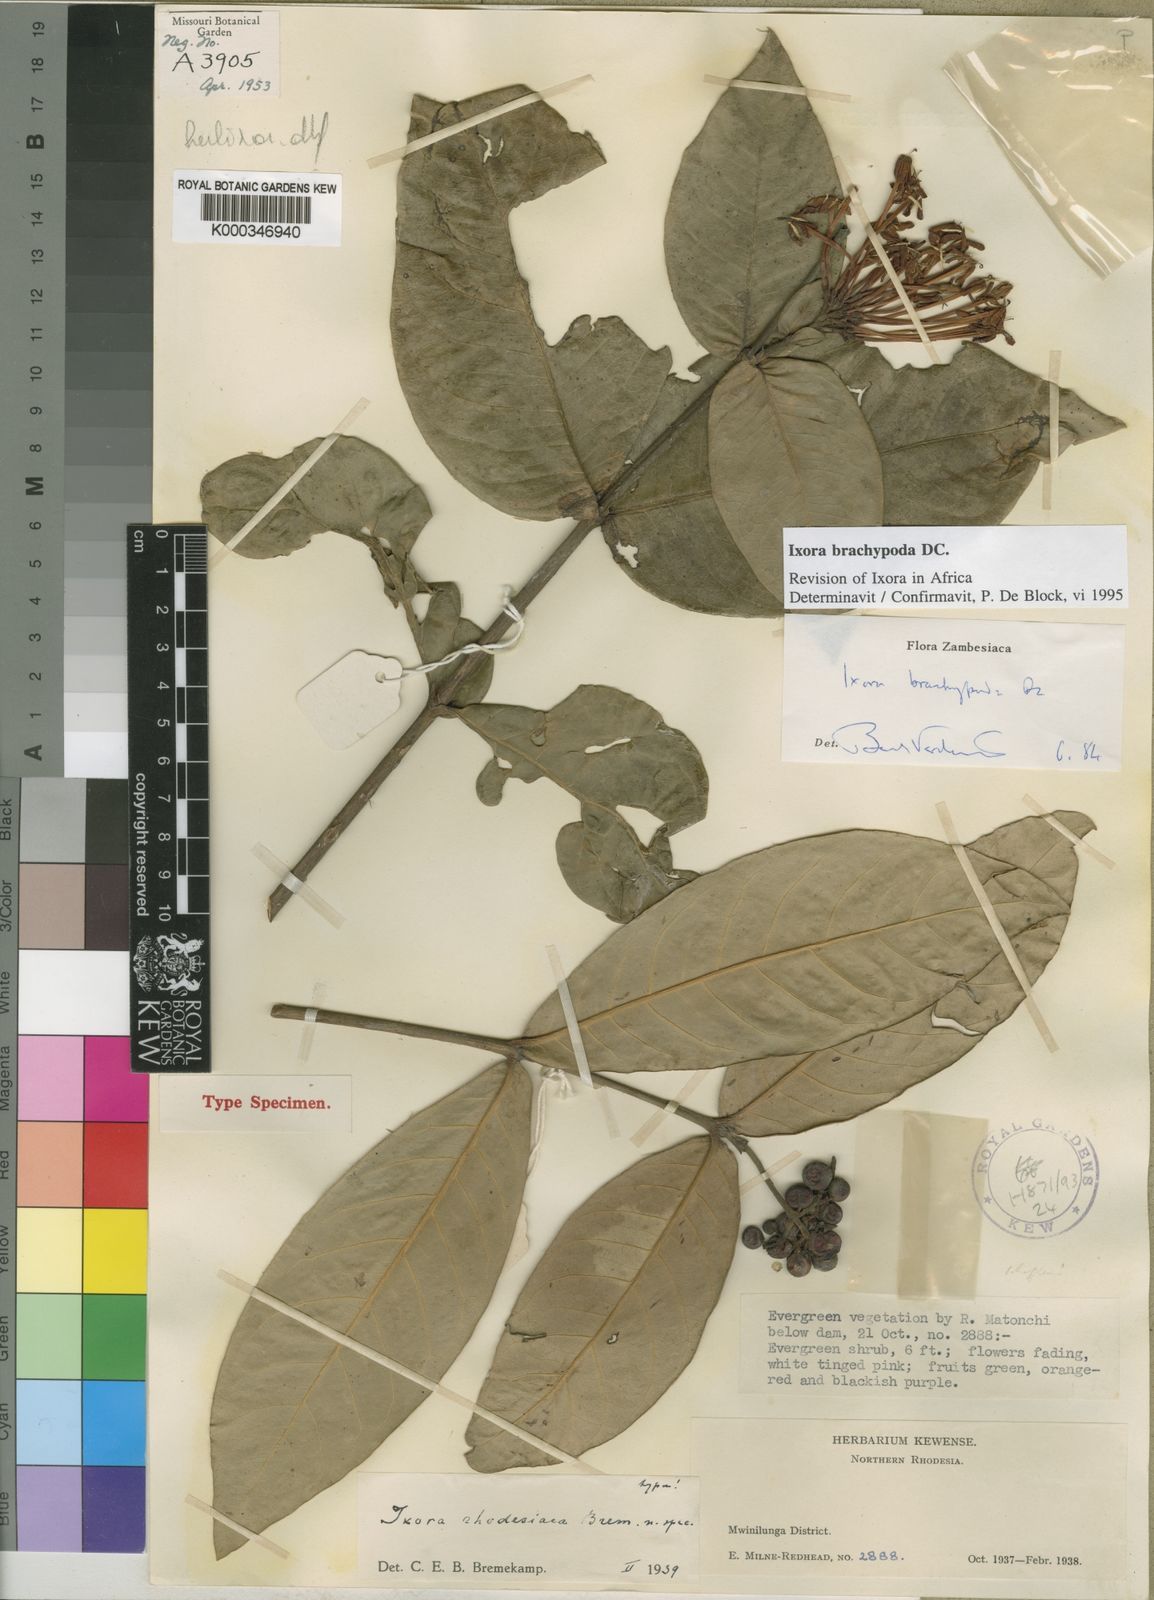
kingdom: Plantae
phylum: Tracheophyta
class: Magnoliopsida
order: Gentianales
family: Rubiaceae
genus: Sericanthe
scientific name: Sericanthe
